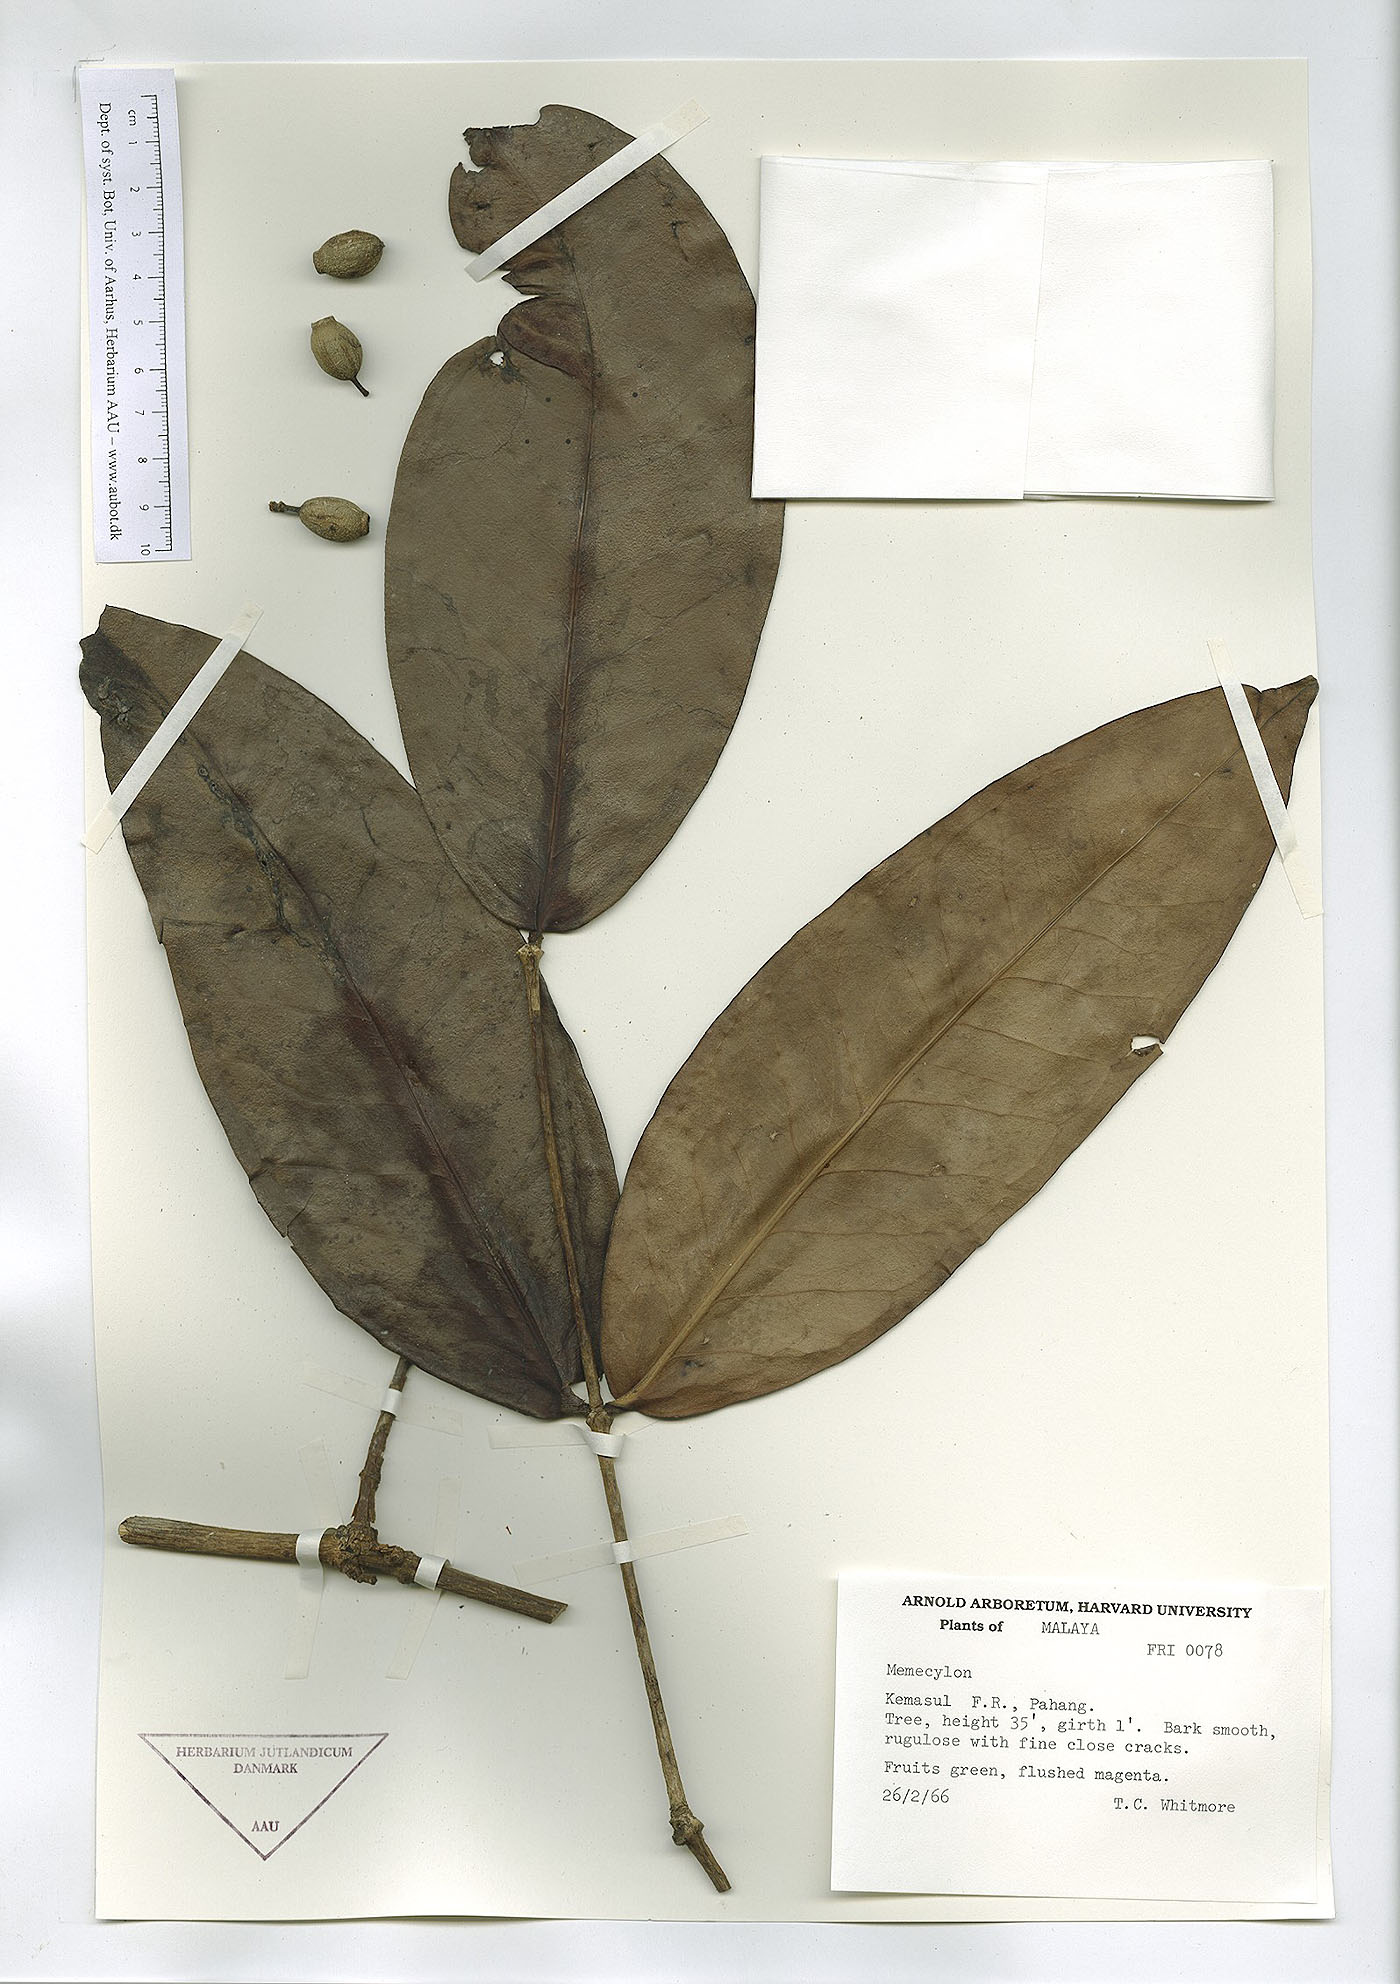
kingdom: Plantae
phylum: Tracheophyta
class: Magnoliopsida
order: Myrtales
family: Melastomataceae
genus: Memecylon
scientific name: Memecylon
